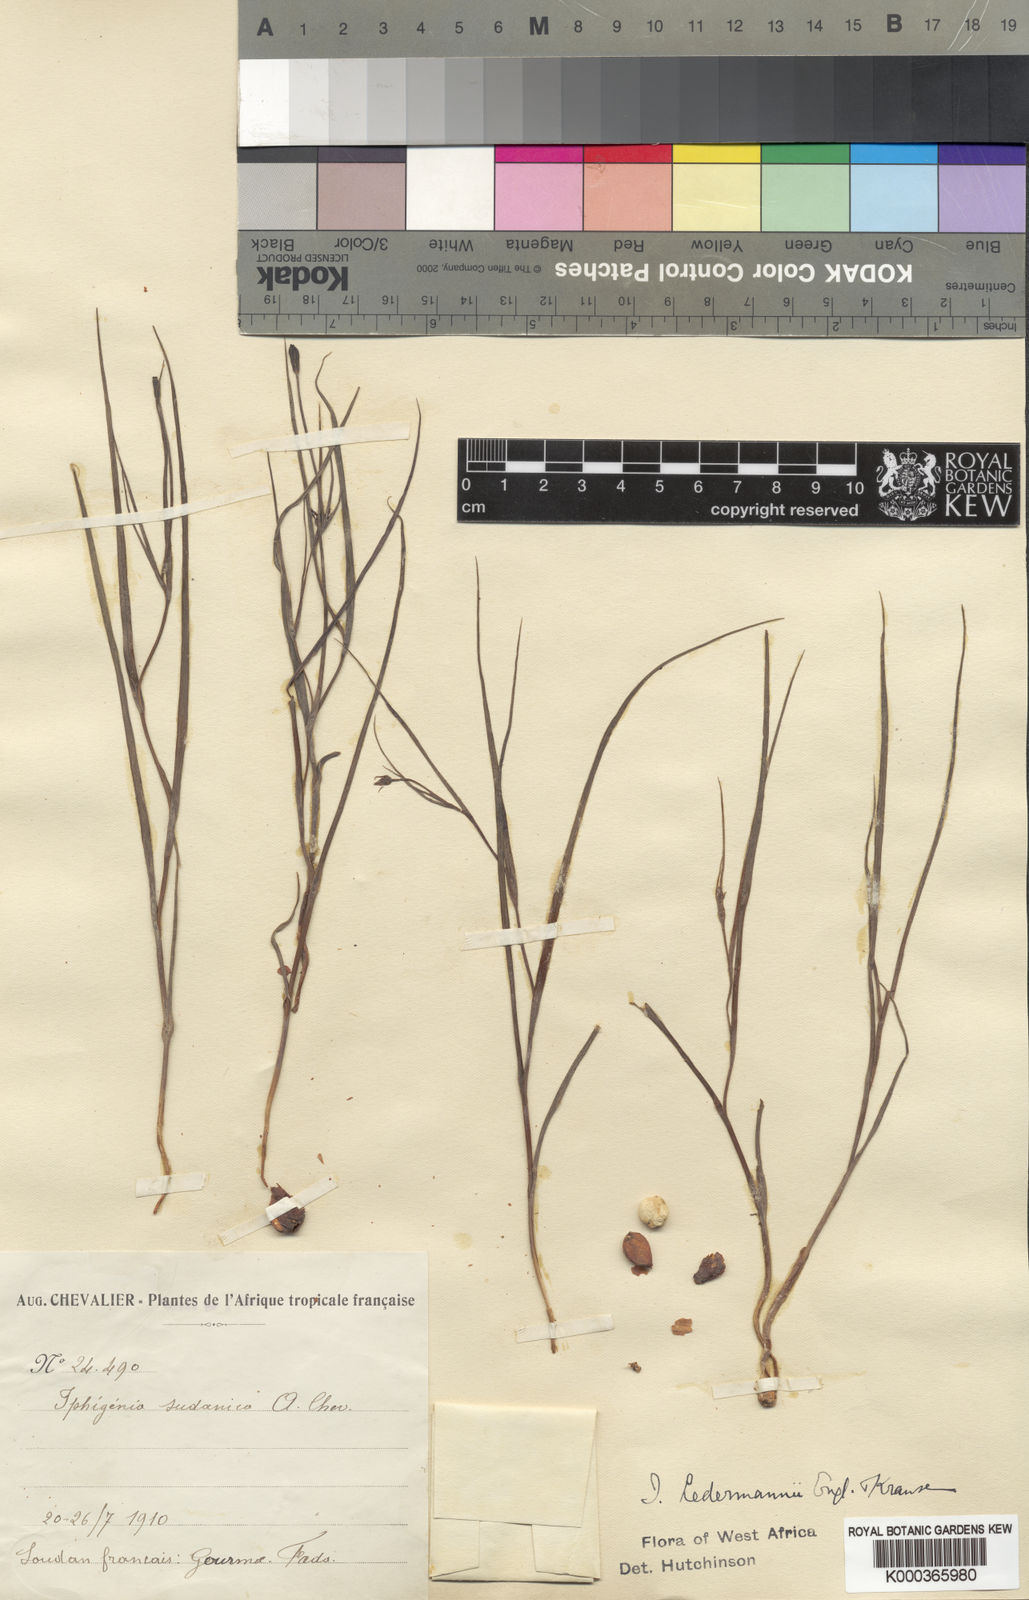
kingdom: Plantae
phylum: Tracheophyta
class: Liliopsida
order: Liliales
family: Colchicaceae
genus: Iphigenia
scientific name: Iphigenia pauciflora
